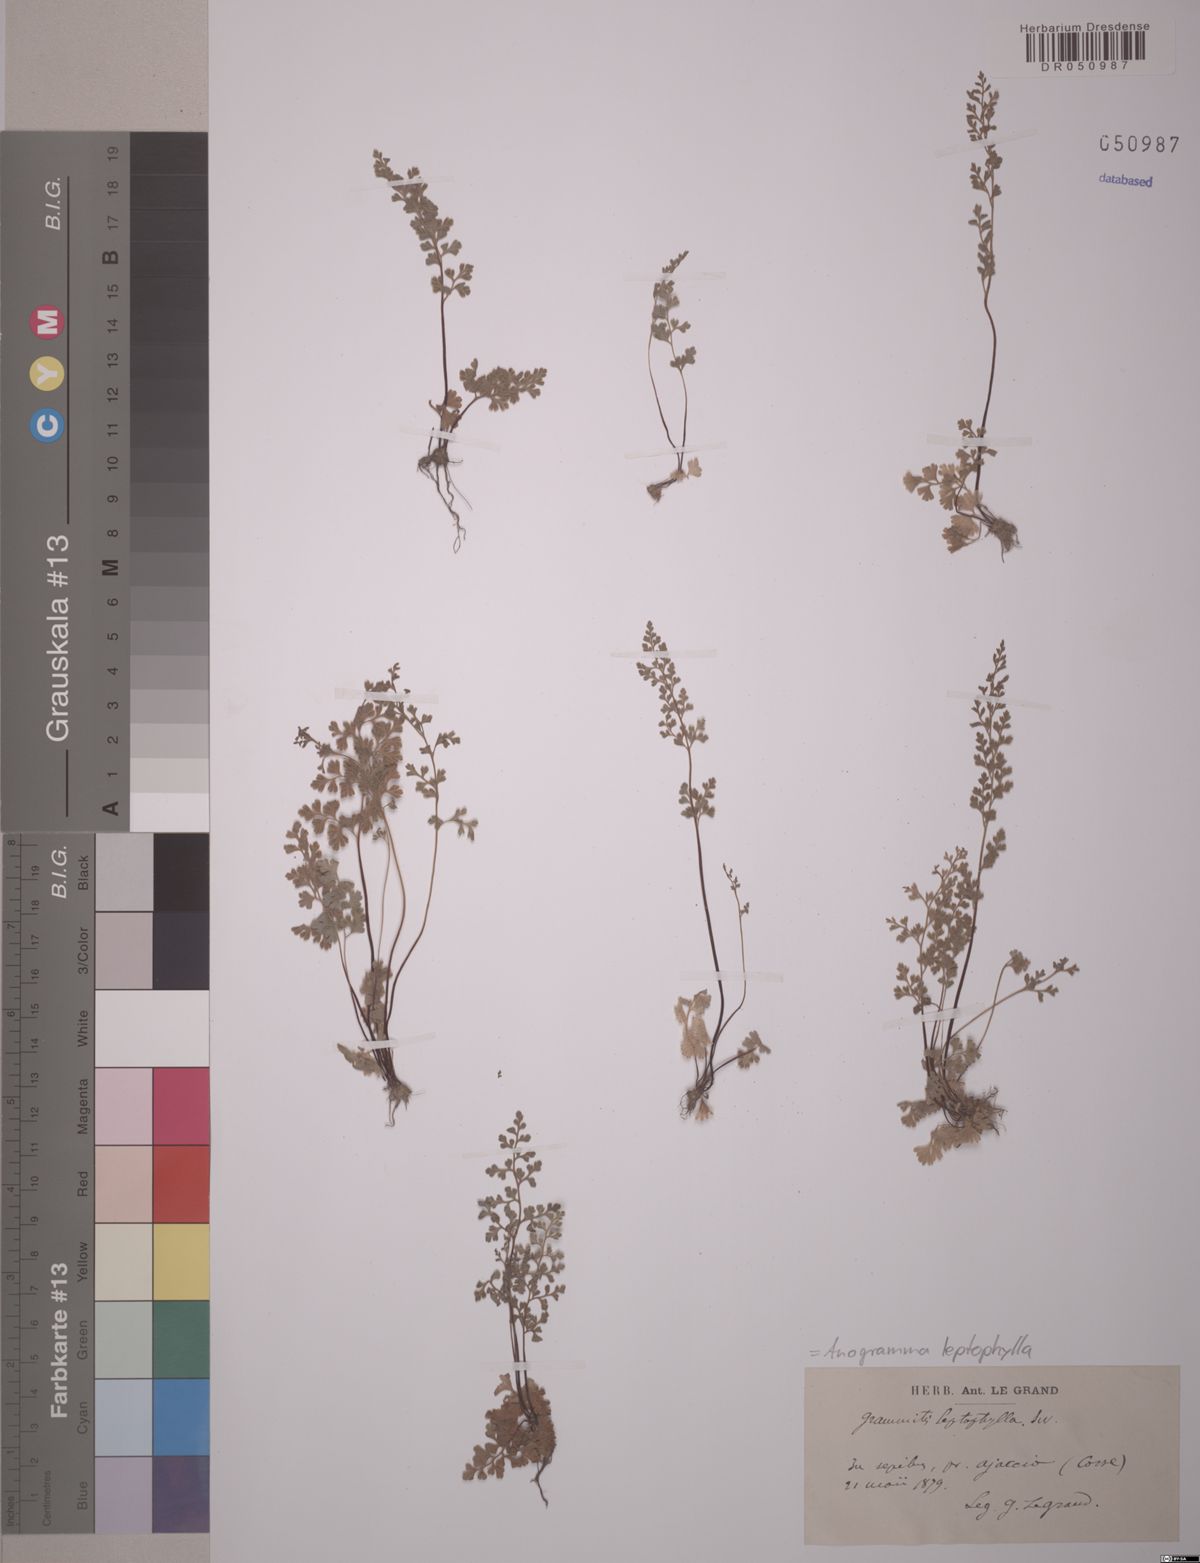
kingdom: Plantae
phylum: Tracheophyta
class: Polypodiopsida
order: Polypodiales
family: Pteridaceae
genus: Anogramma
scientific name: Anogramma leptophylla
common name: Jersey fern
